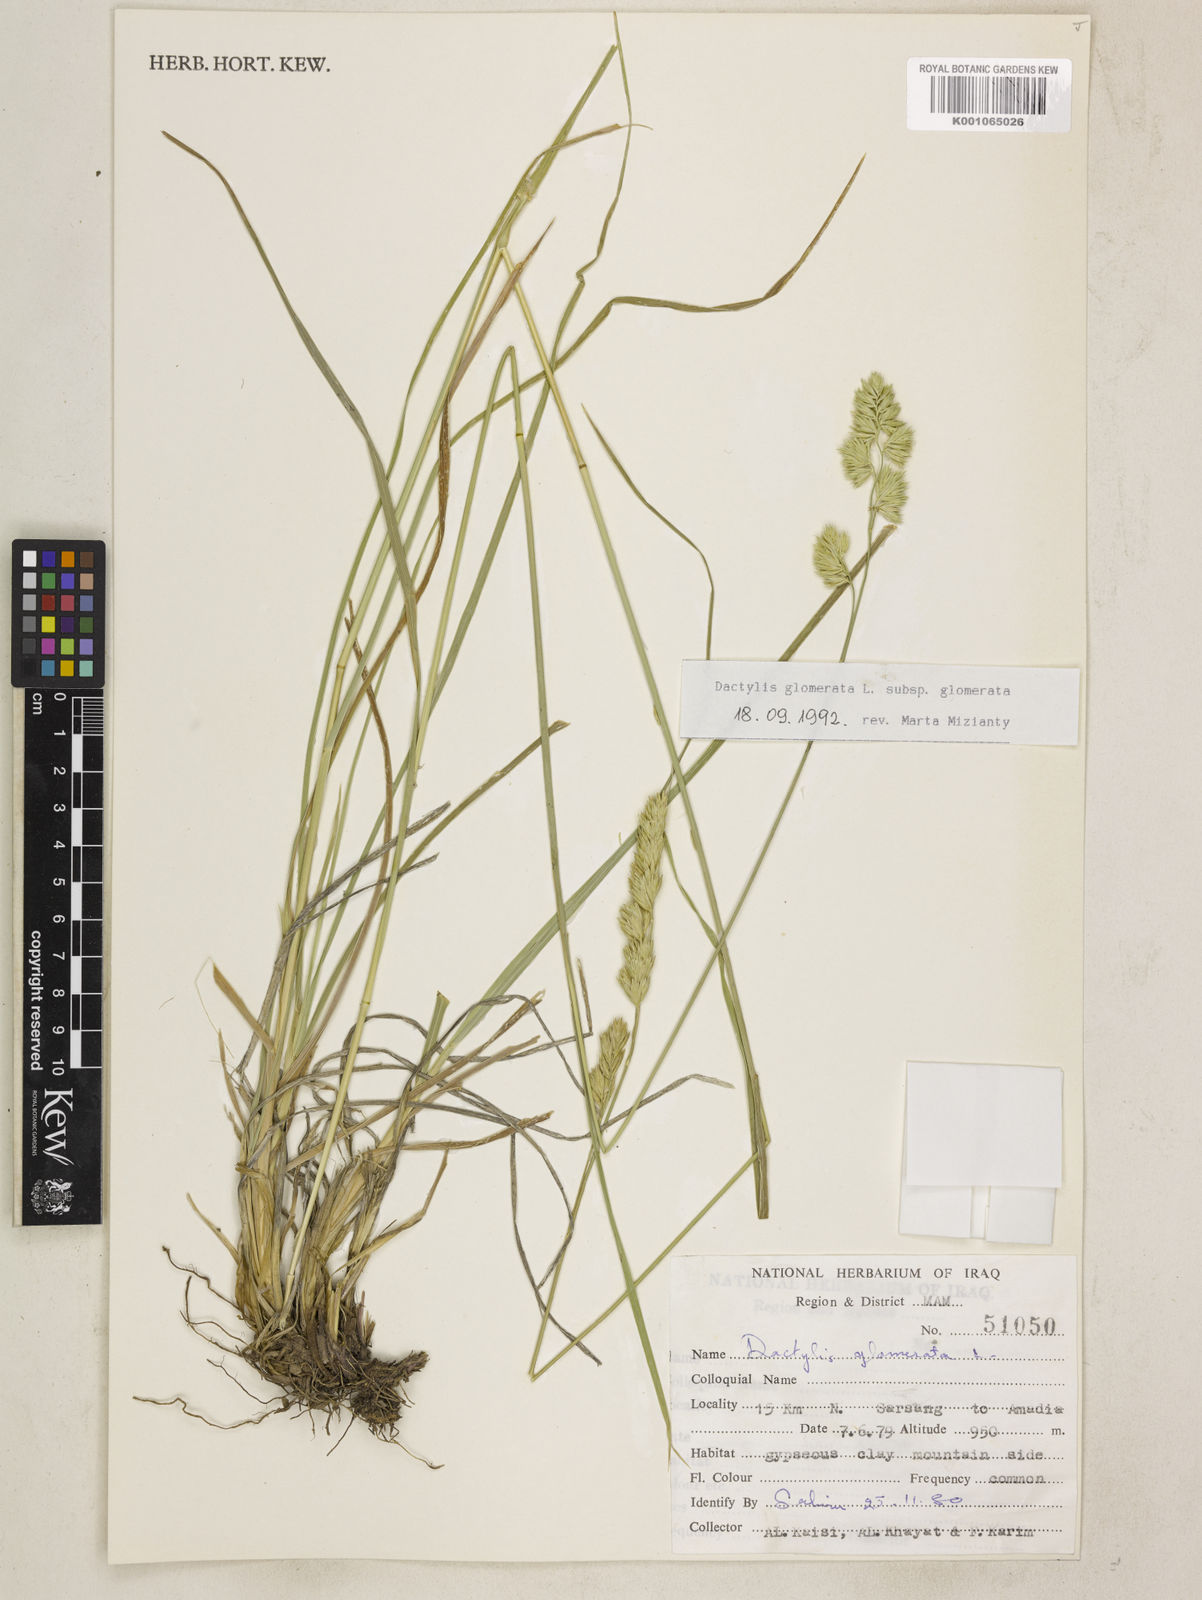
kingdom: Plantae
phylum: Tracheophyta
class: Liliopsida
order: Poales
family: Poaceae
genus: Dactylis
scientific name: Dactylis glomerata
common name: Orchardgrass
